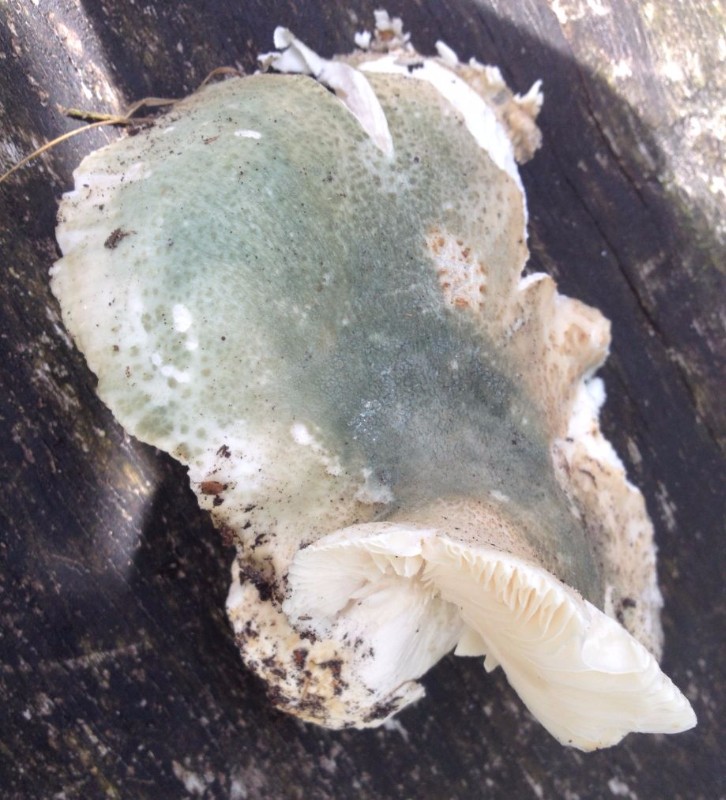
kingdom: Fungi
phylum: Basidiomycota
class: Agaricomycetes
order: Russulales
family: Russulaceae
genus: Russula
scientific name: Russula virescens
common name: spanskgrøn skørhat
